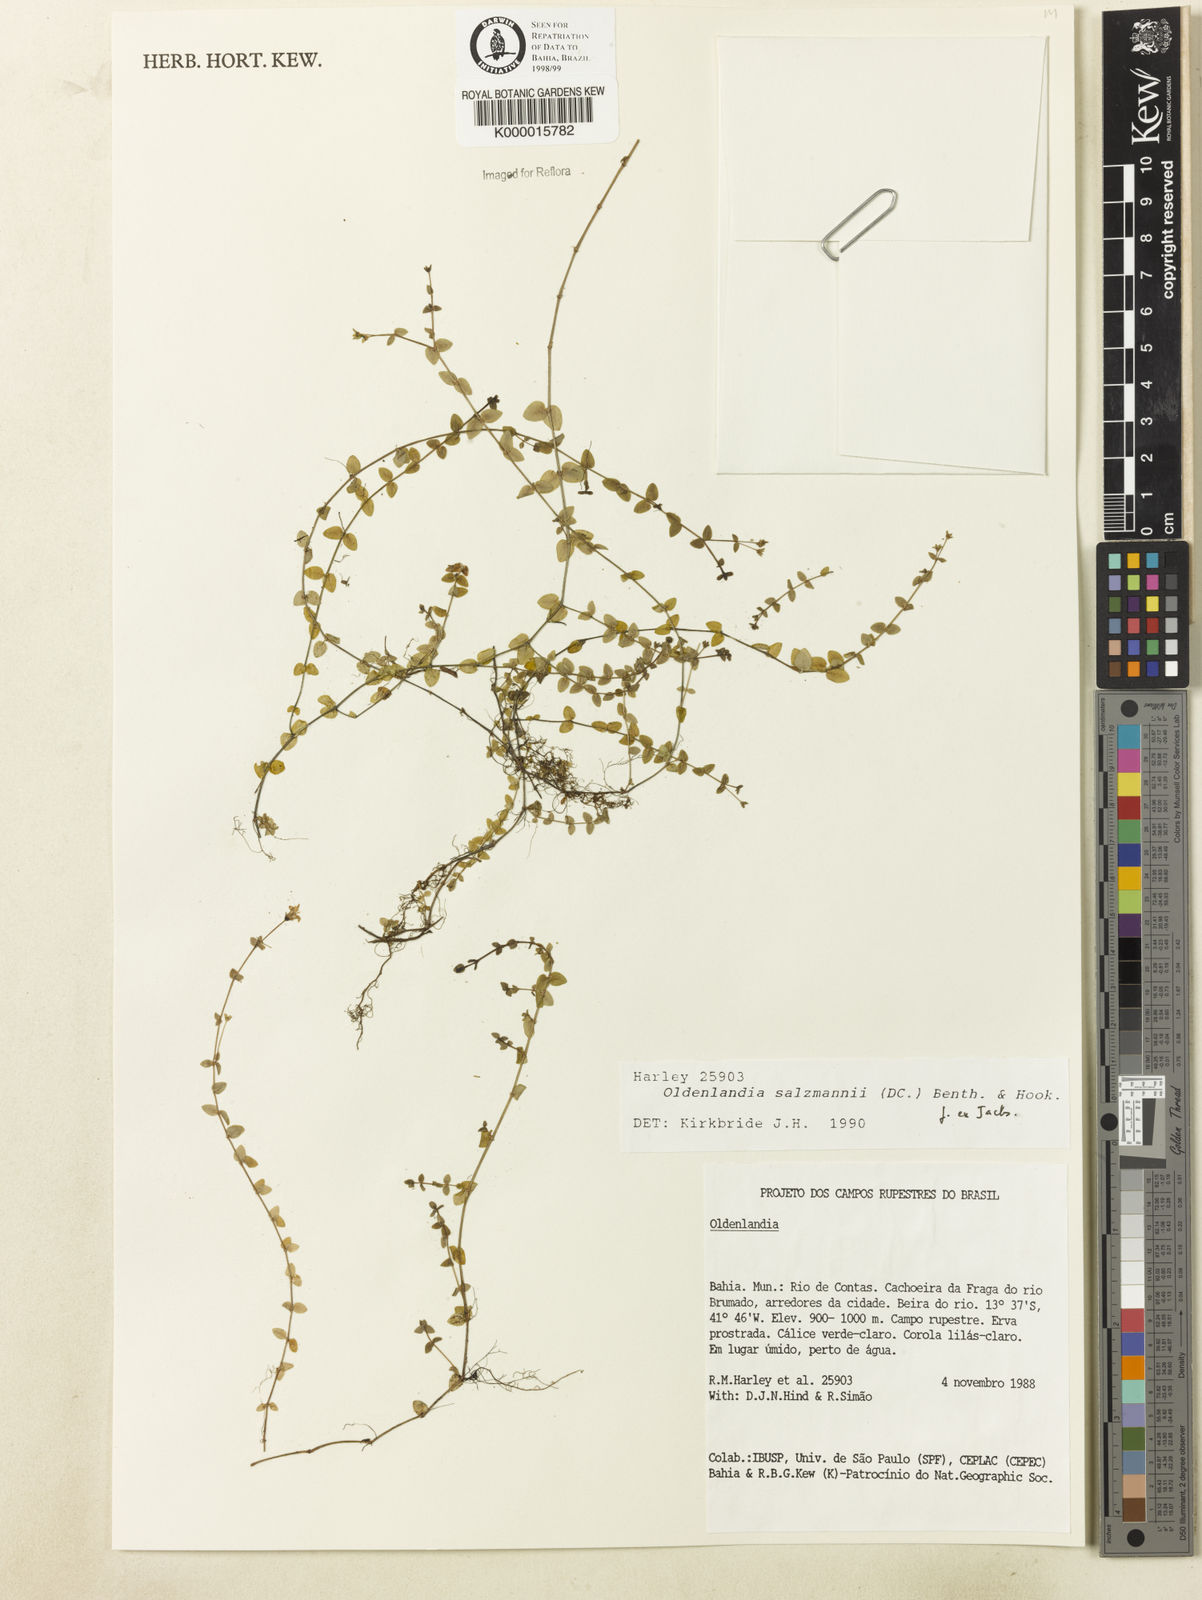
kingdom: Plantae
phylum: Tracheophyta
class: Magnoliopsida
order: Gentianales
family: Rubiaceae
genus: Oldenlandia
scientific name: Oldenlandia salzmannii
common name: Salzmann's mille graines
